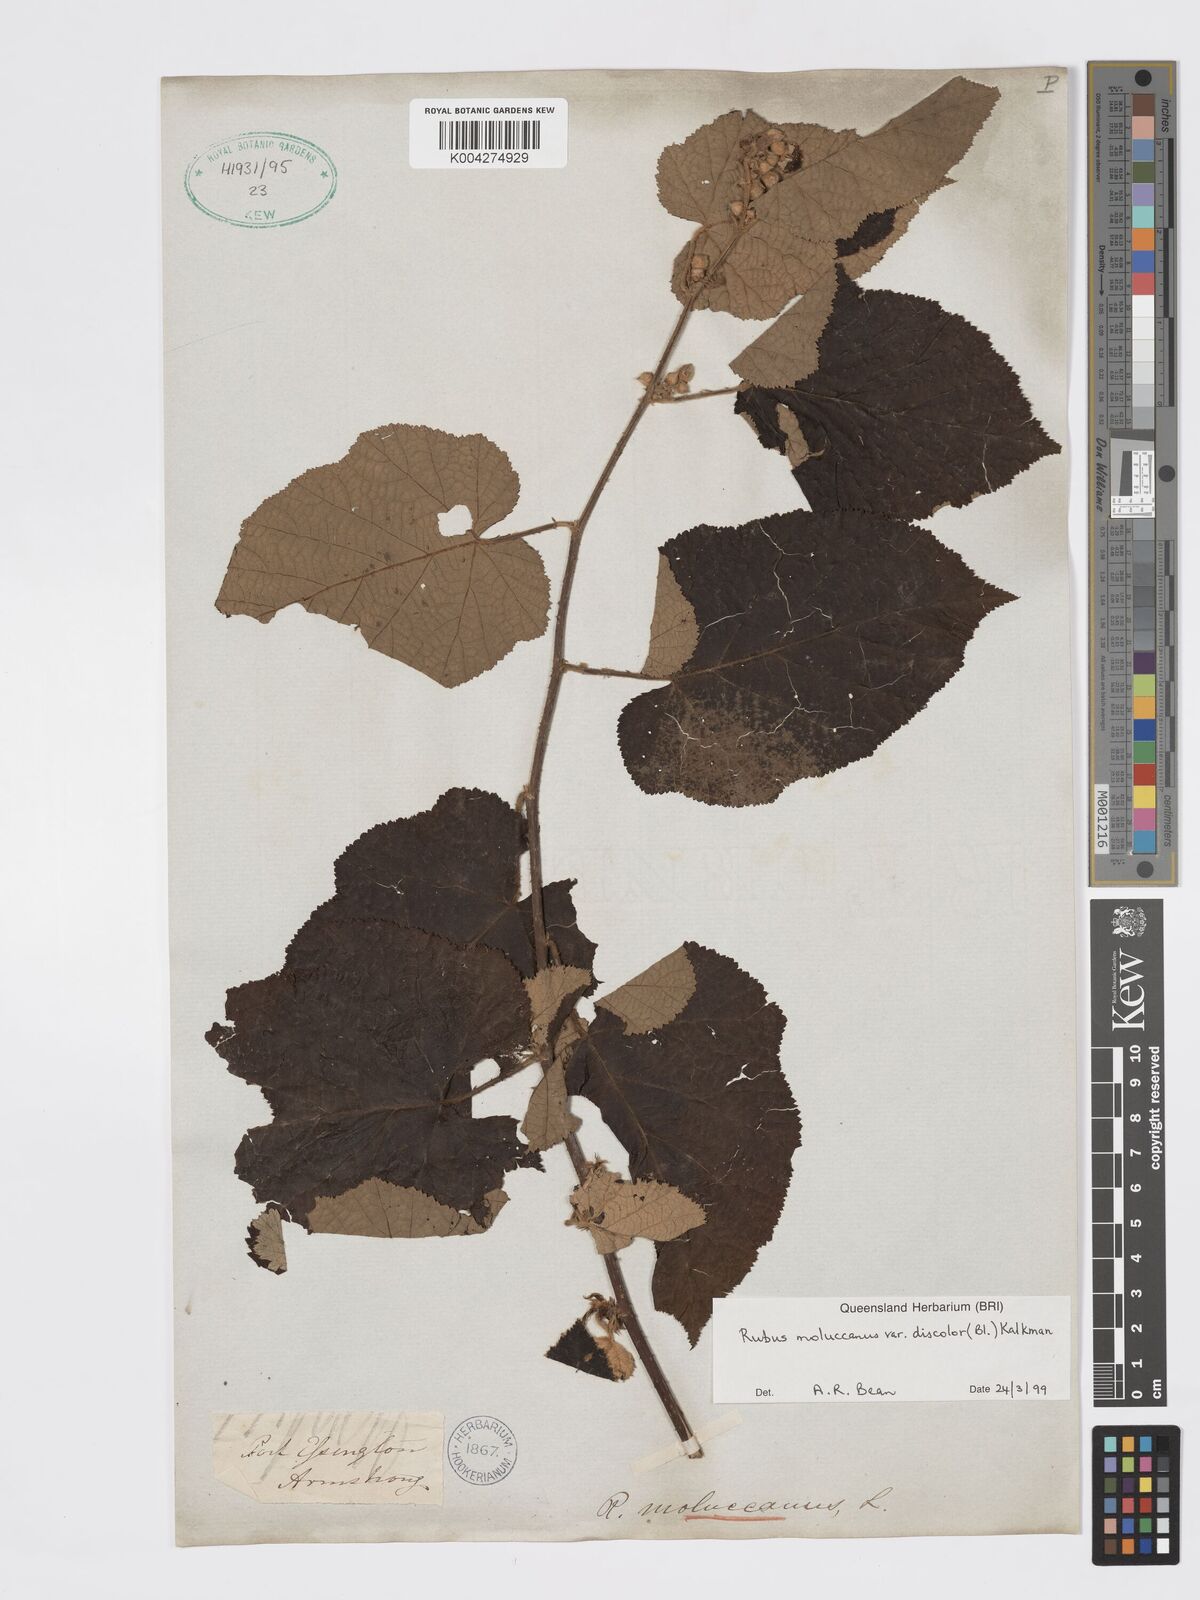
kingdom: Plantae
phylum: Tracheophyta
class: Magnoliopsida
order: Rosales
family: Rosaceae
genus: Rubus
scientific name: Rubus moluccanus
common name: Wild raspberry
